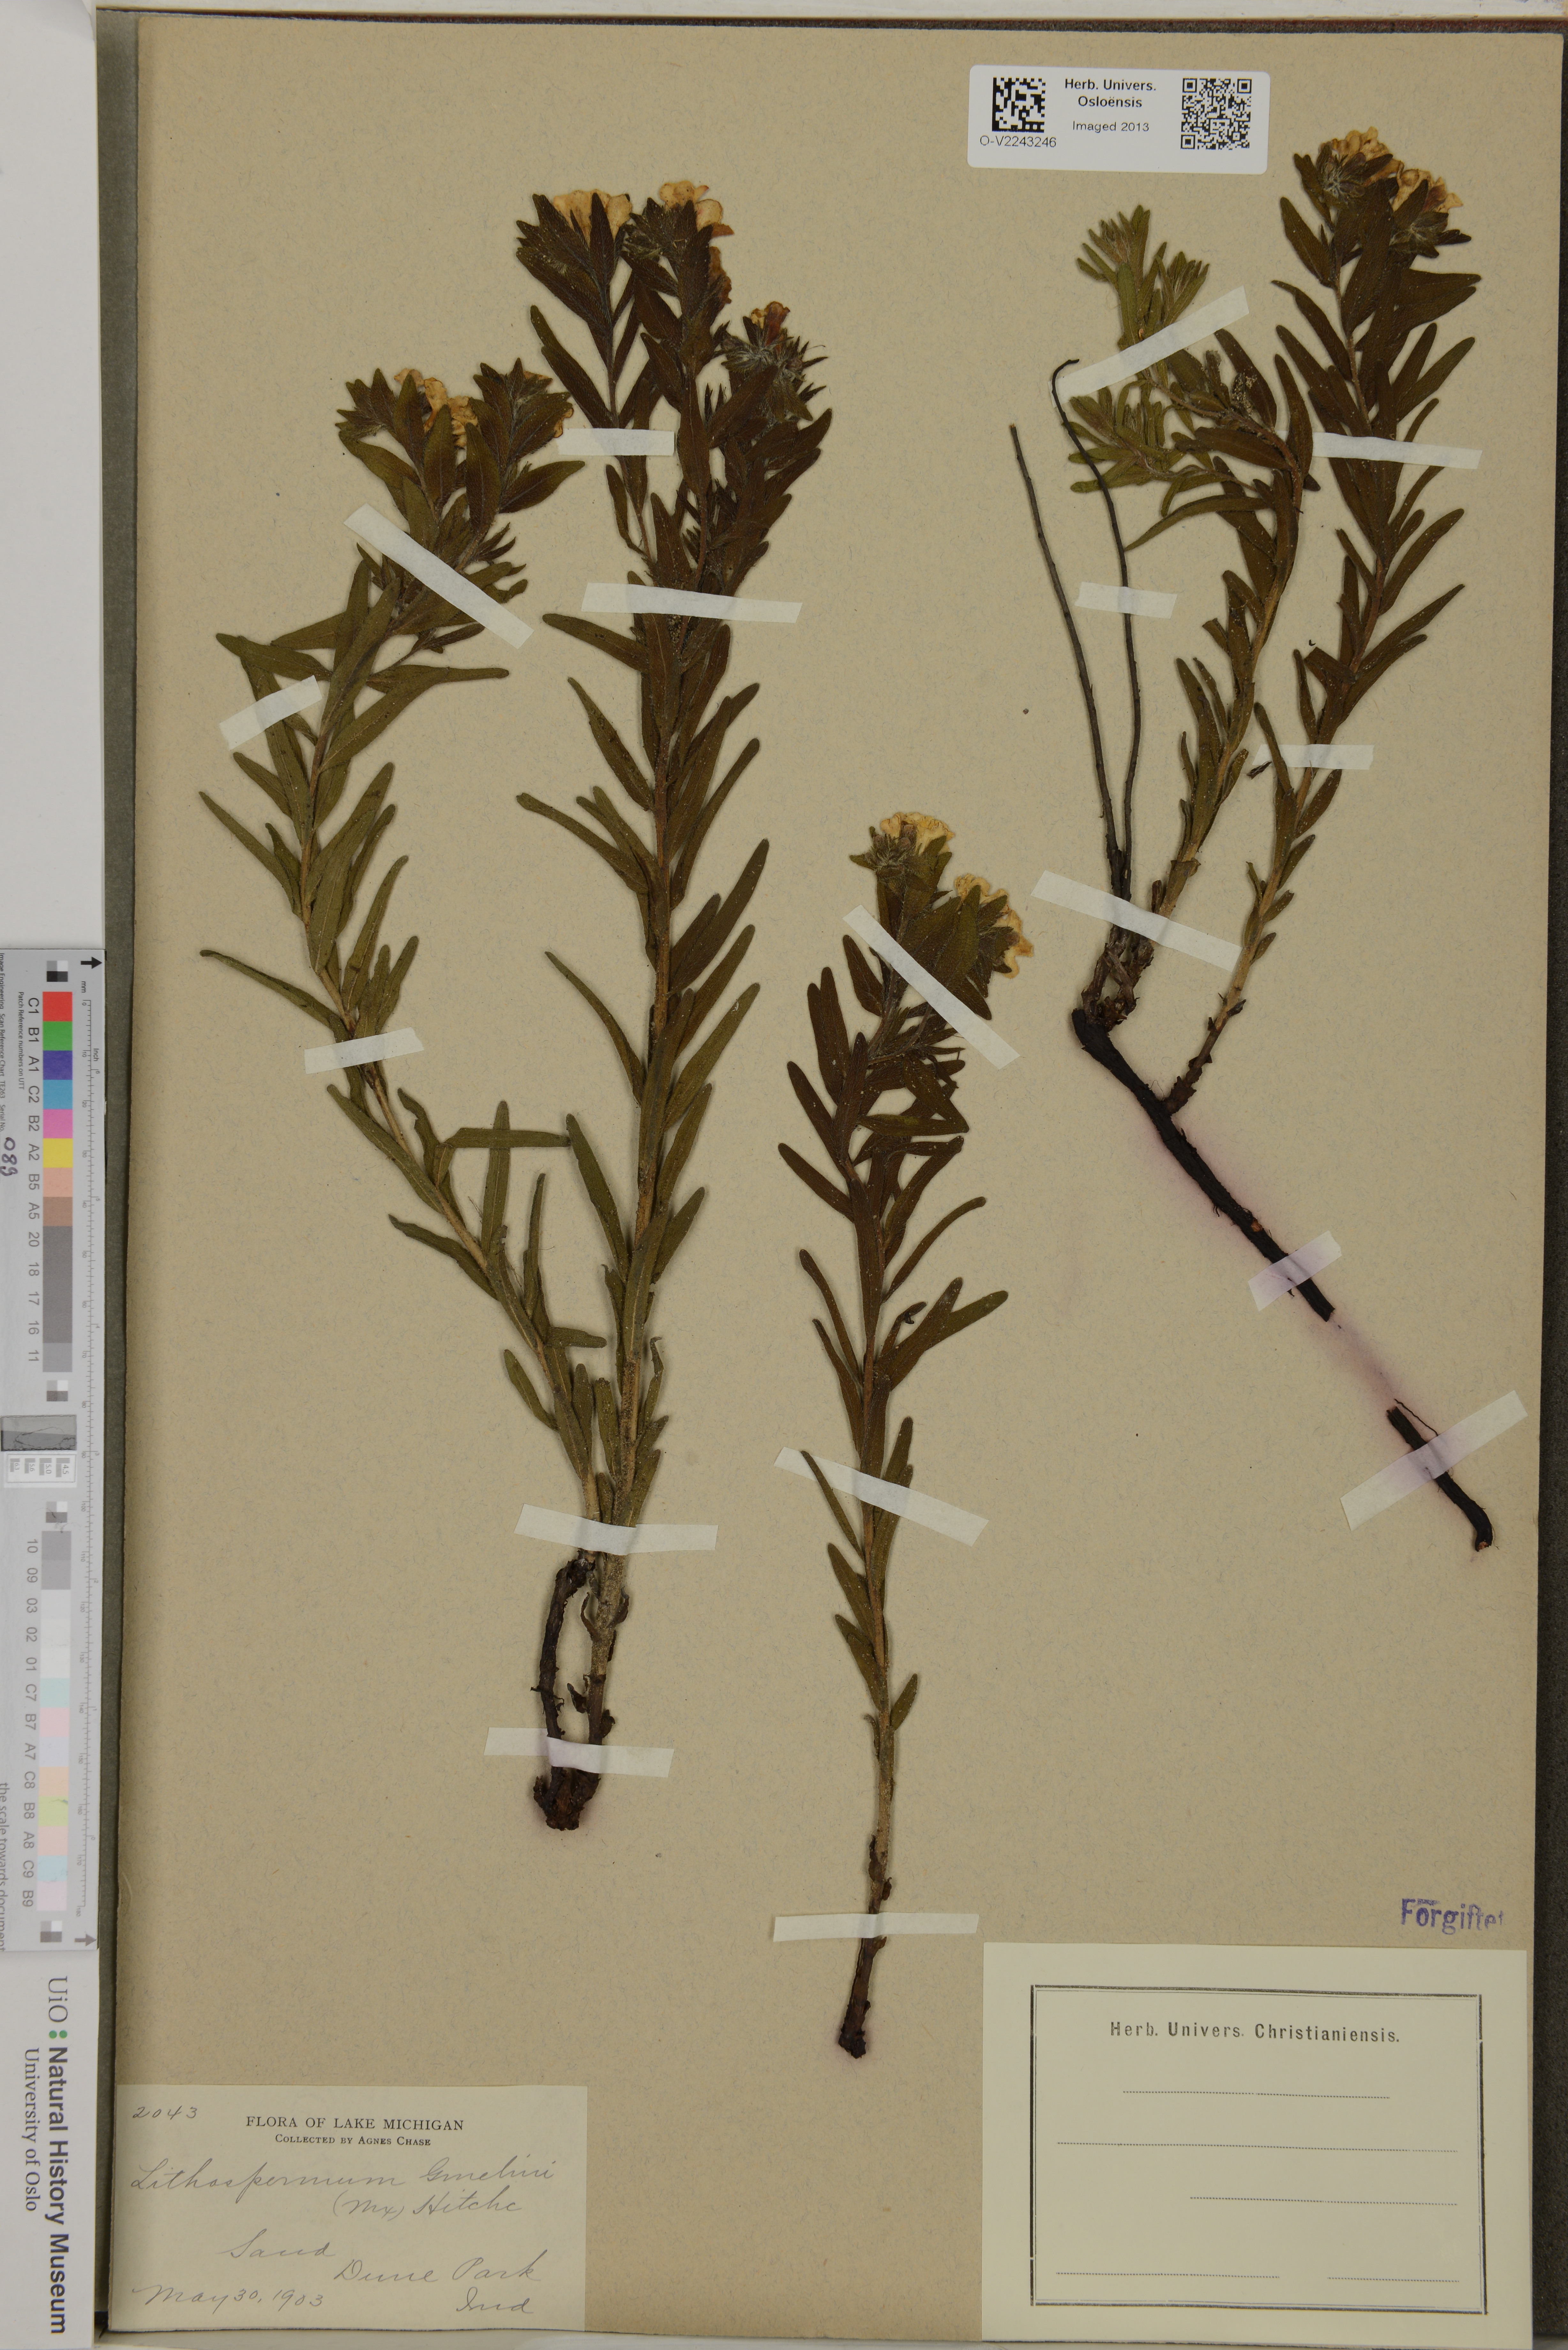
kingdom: Plantae
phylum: Tracheophyta
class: Magnoliopsida
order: Boraginales
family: Boraginaceae
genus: Lithospermum
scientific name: Lithospermum caroliniense
